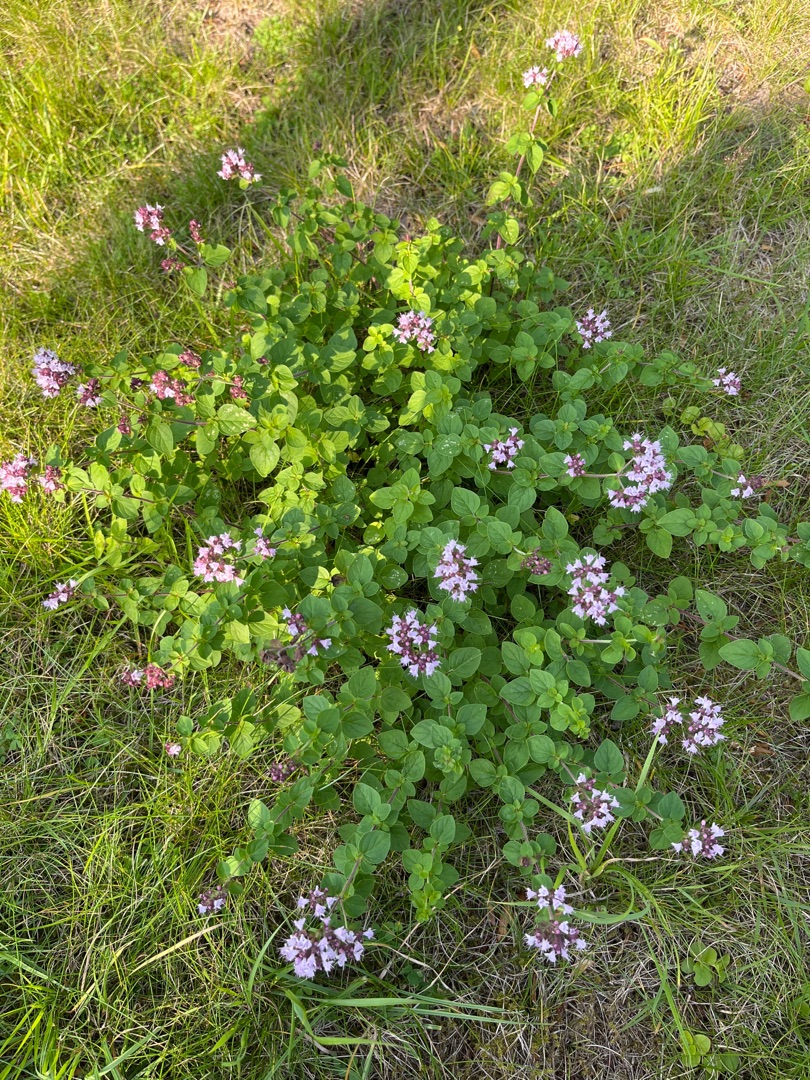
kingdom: Plantae
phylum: Tracheophyta
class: Magnoliopsida
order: Lamiales
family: Lamiaceae
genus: Origanum
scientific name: Origanum vulgare
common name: Merian
